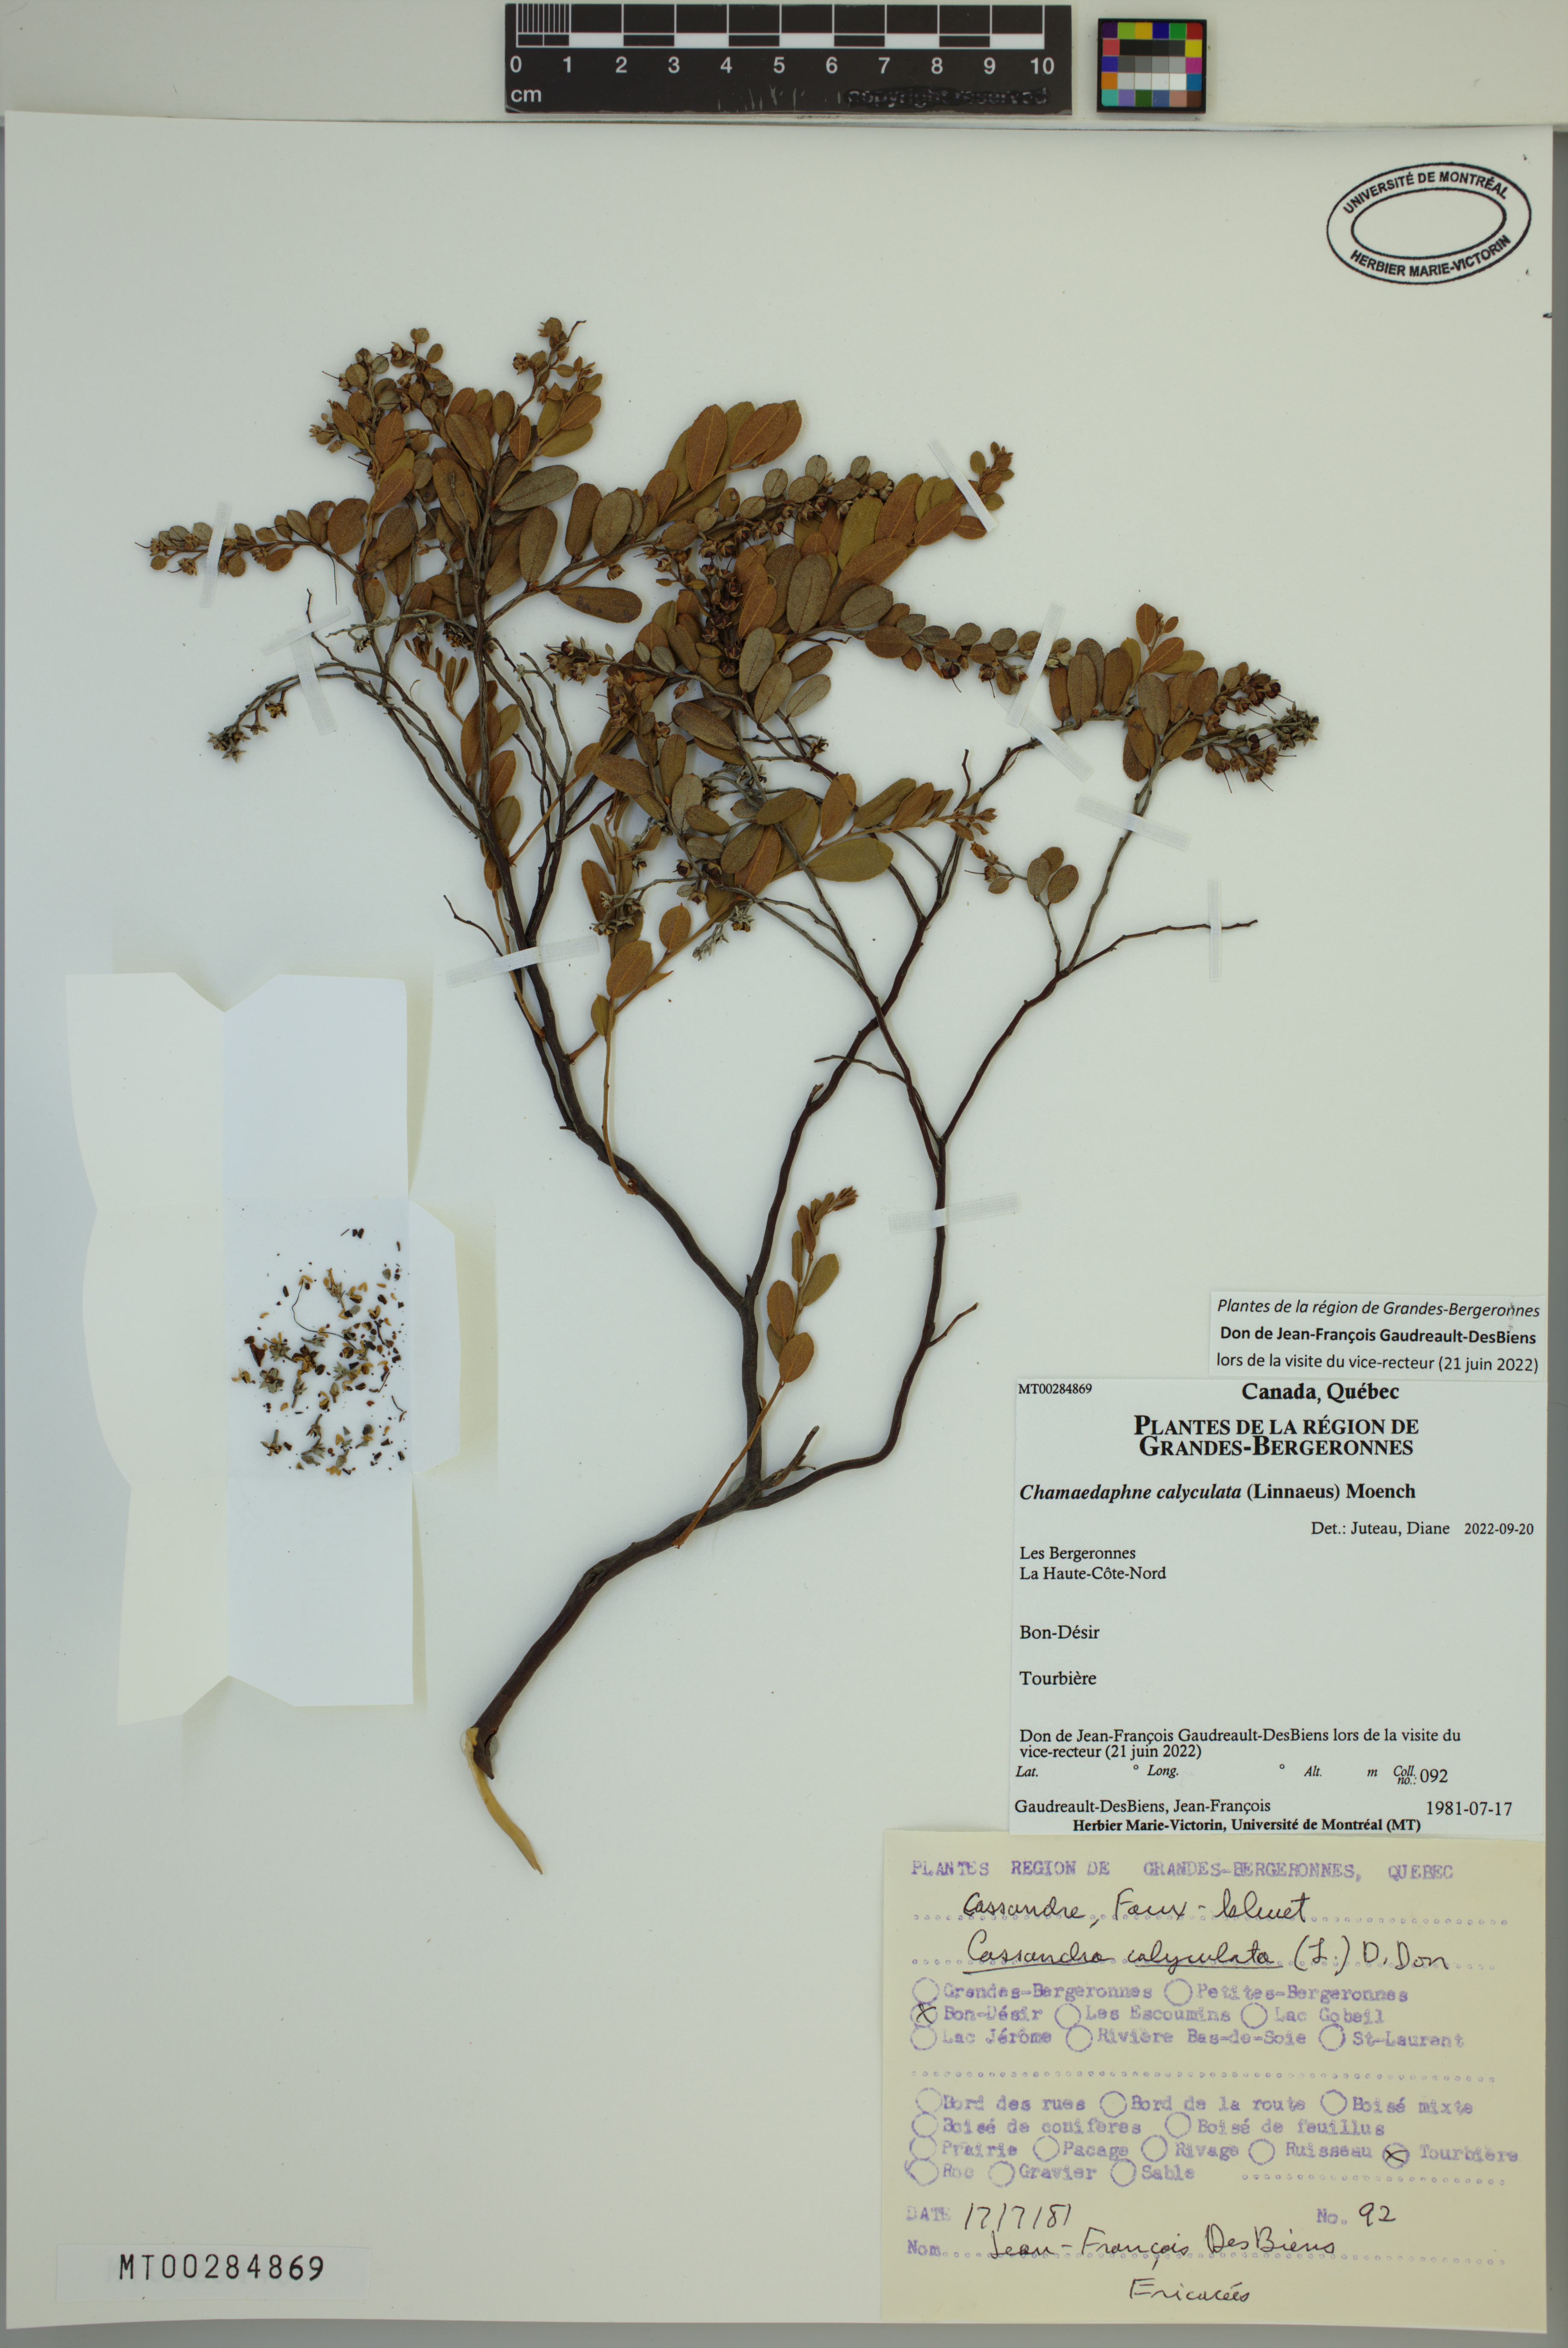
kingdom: Plantae
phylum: Tracheophyta
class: Magnoliopsida
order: Ericales
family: Ericaceae
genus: Chamaedaphne
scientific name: Chamaedaphne calyculata
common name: Leatherleaf
